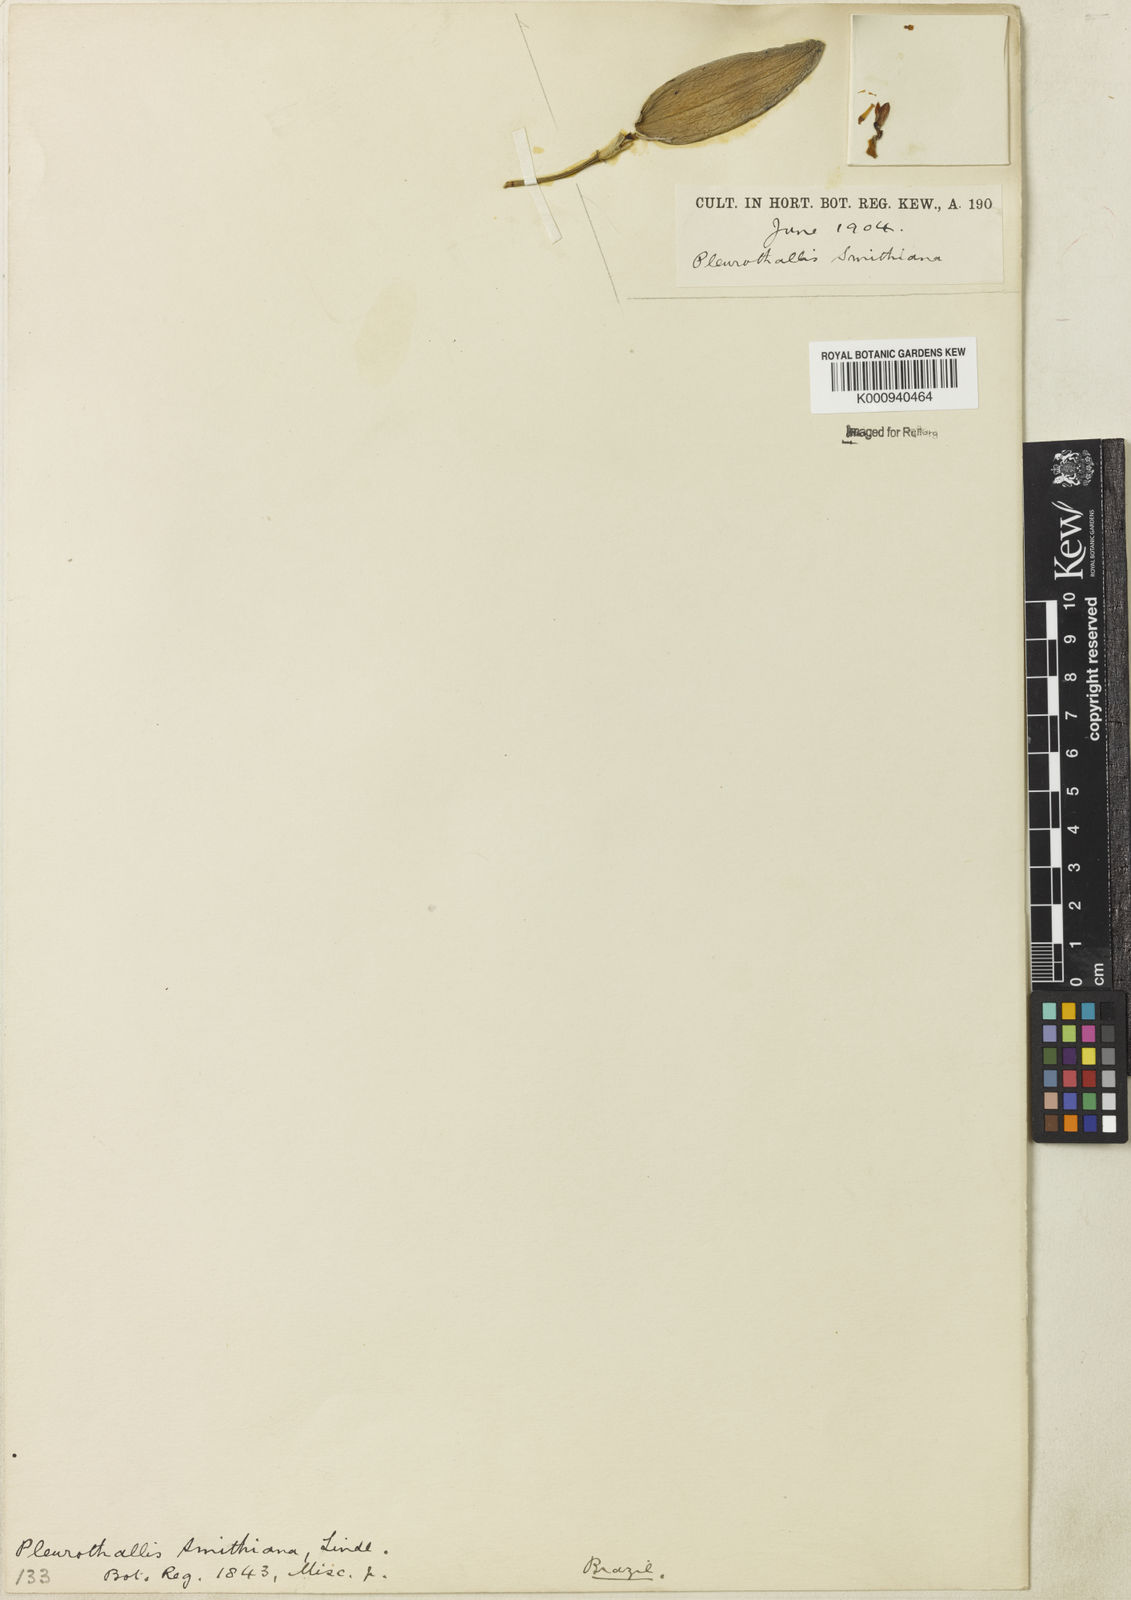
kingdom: Plantae
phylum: Tracheophyta
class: Liliopsida
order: Asparagales
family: Orchidaceae
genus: Acianthera
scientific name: Acianthera
